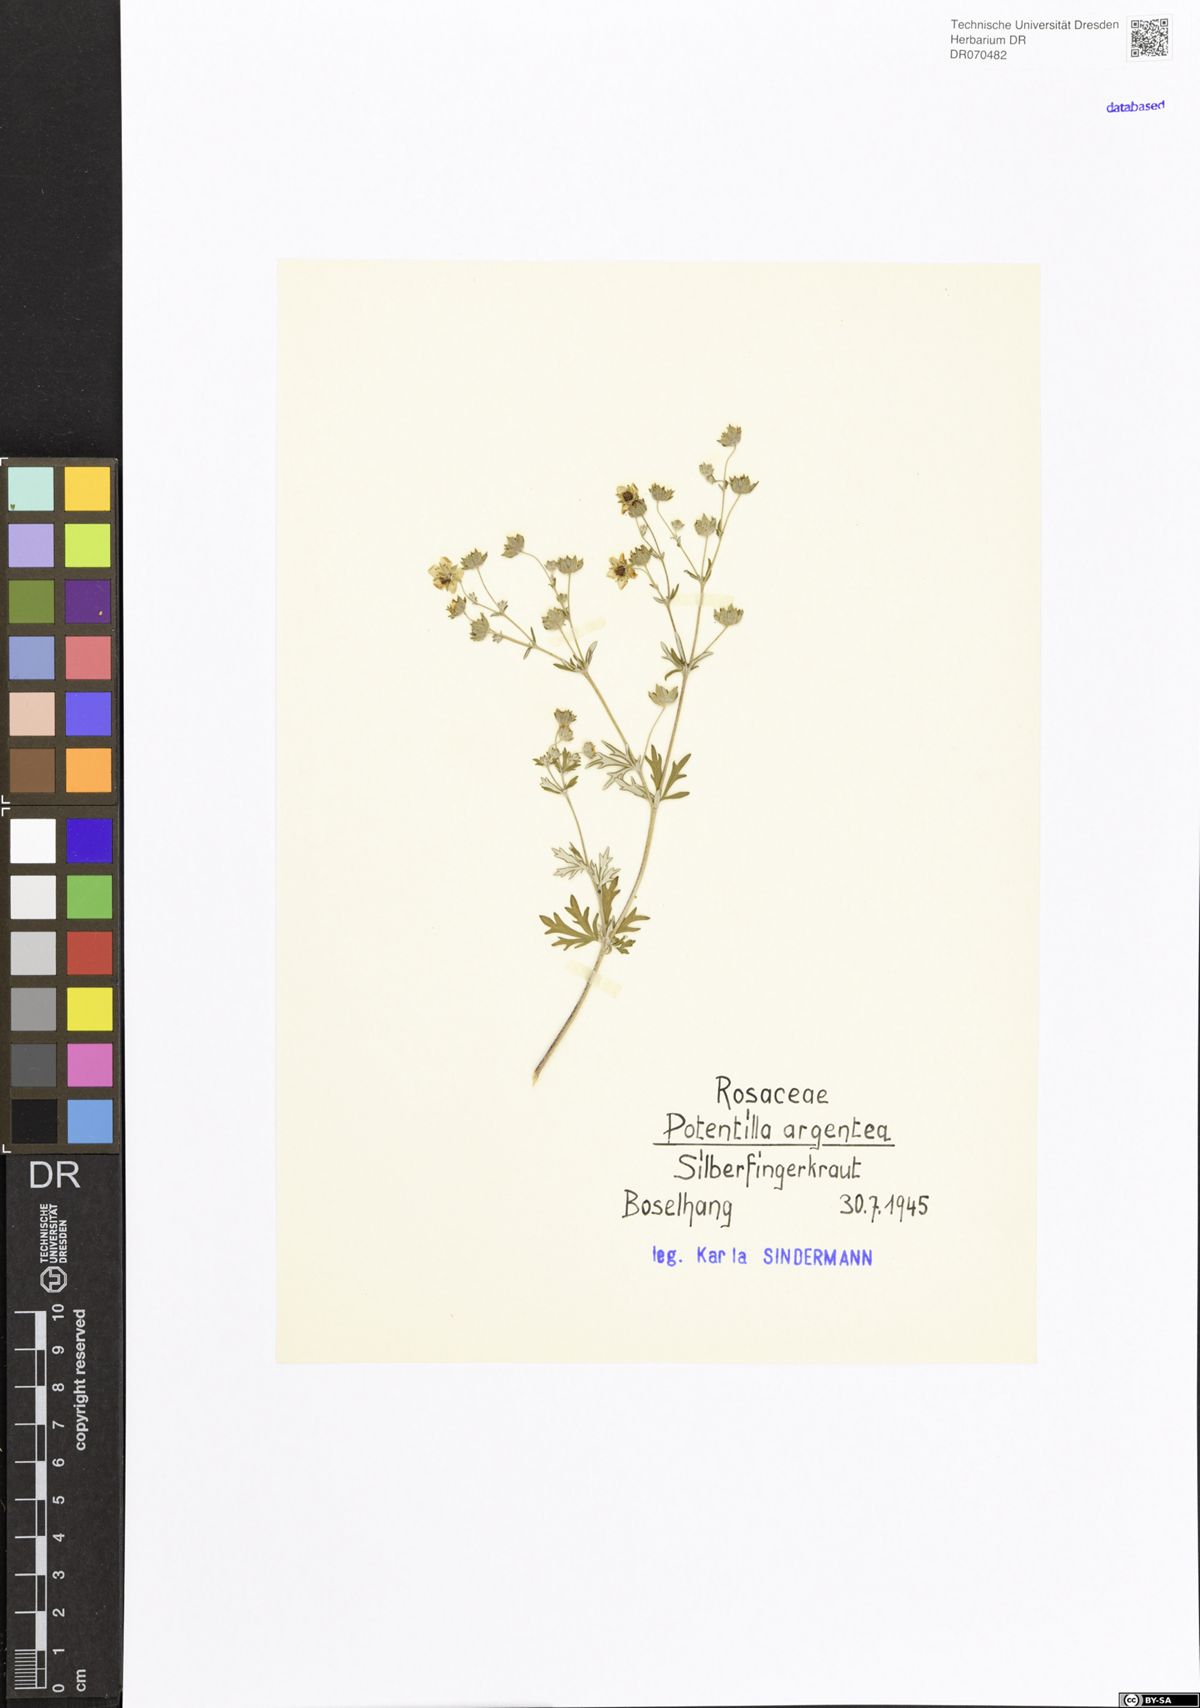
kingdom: Plantae
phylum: Tracheophyta
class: Magnoliopsida
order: Rosales
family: Rosaceae
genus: Potentilla
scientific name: Potentilla argentea
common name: Hoary cinquefoil
